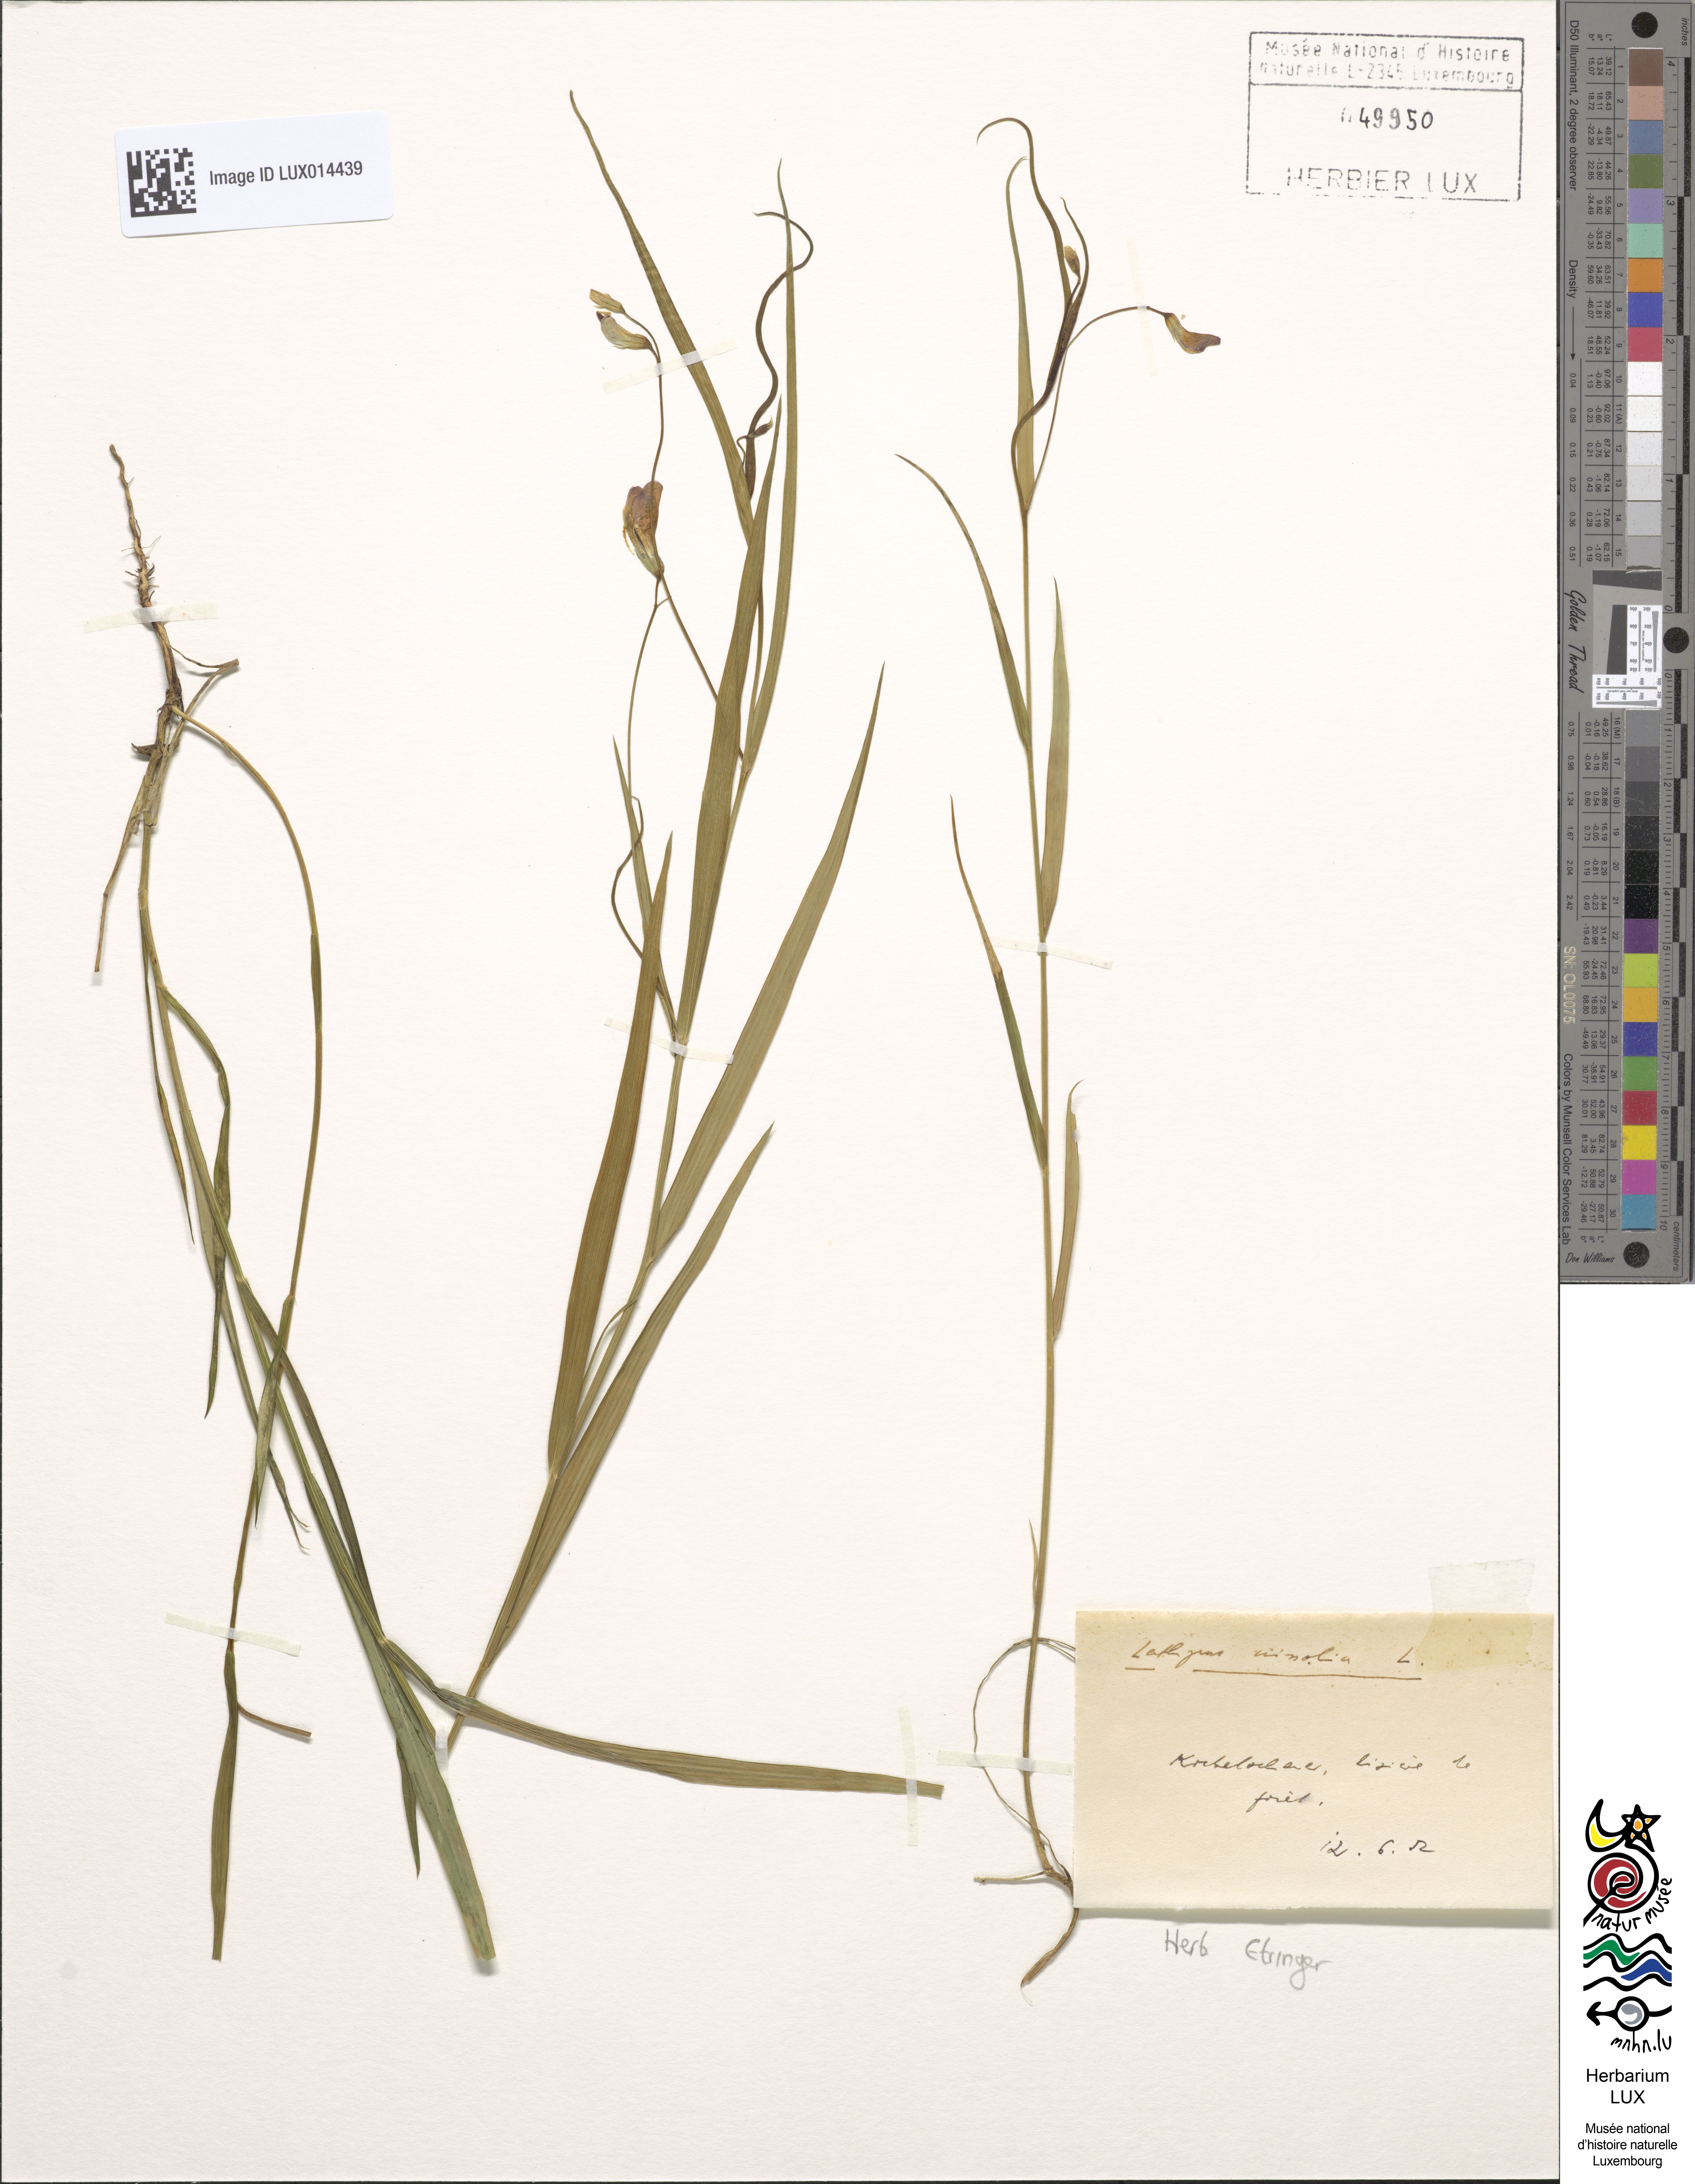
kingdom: Plantae
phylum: Tracheophyta
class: Magnoliopsida
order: Fabales
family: Fabaceae
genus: Lathyrus
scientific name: Lathyrus nissolia
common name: Grass vetchling
